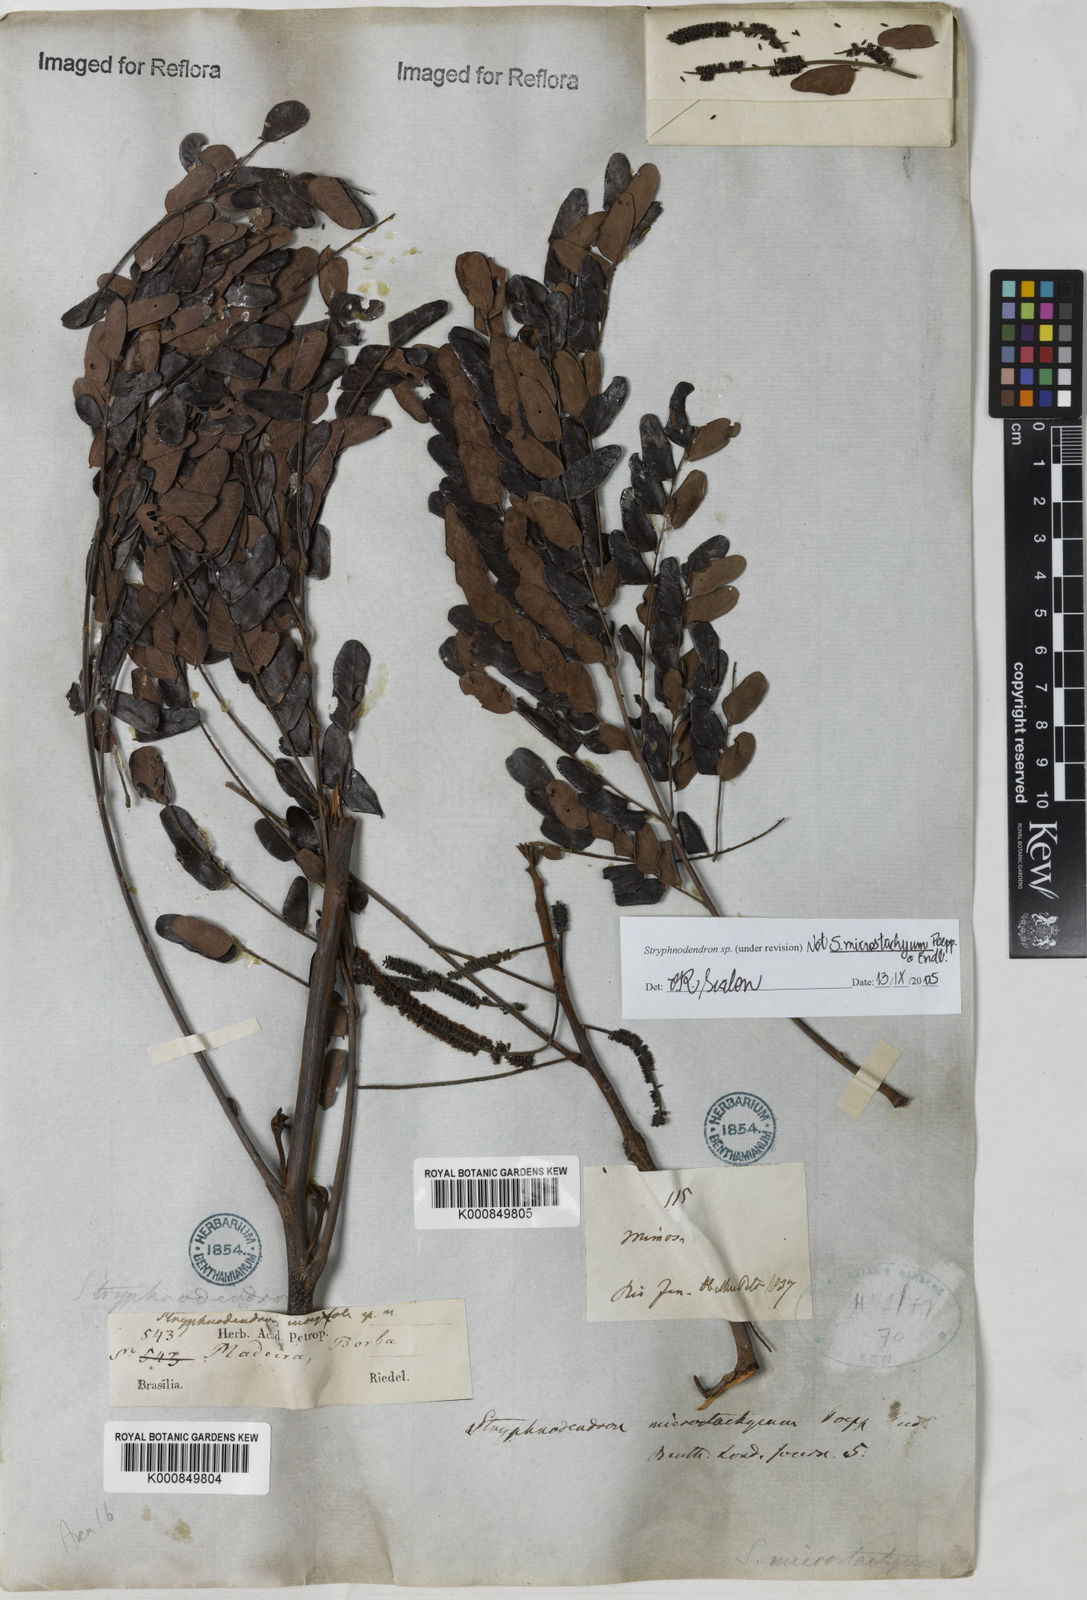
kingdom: Plantae
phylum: Tracheophyta
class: Magnoliopsida
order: Fabales
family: Fabaceae
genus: Stryphnodendron
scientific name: Stryphnodendron
